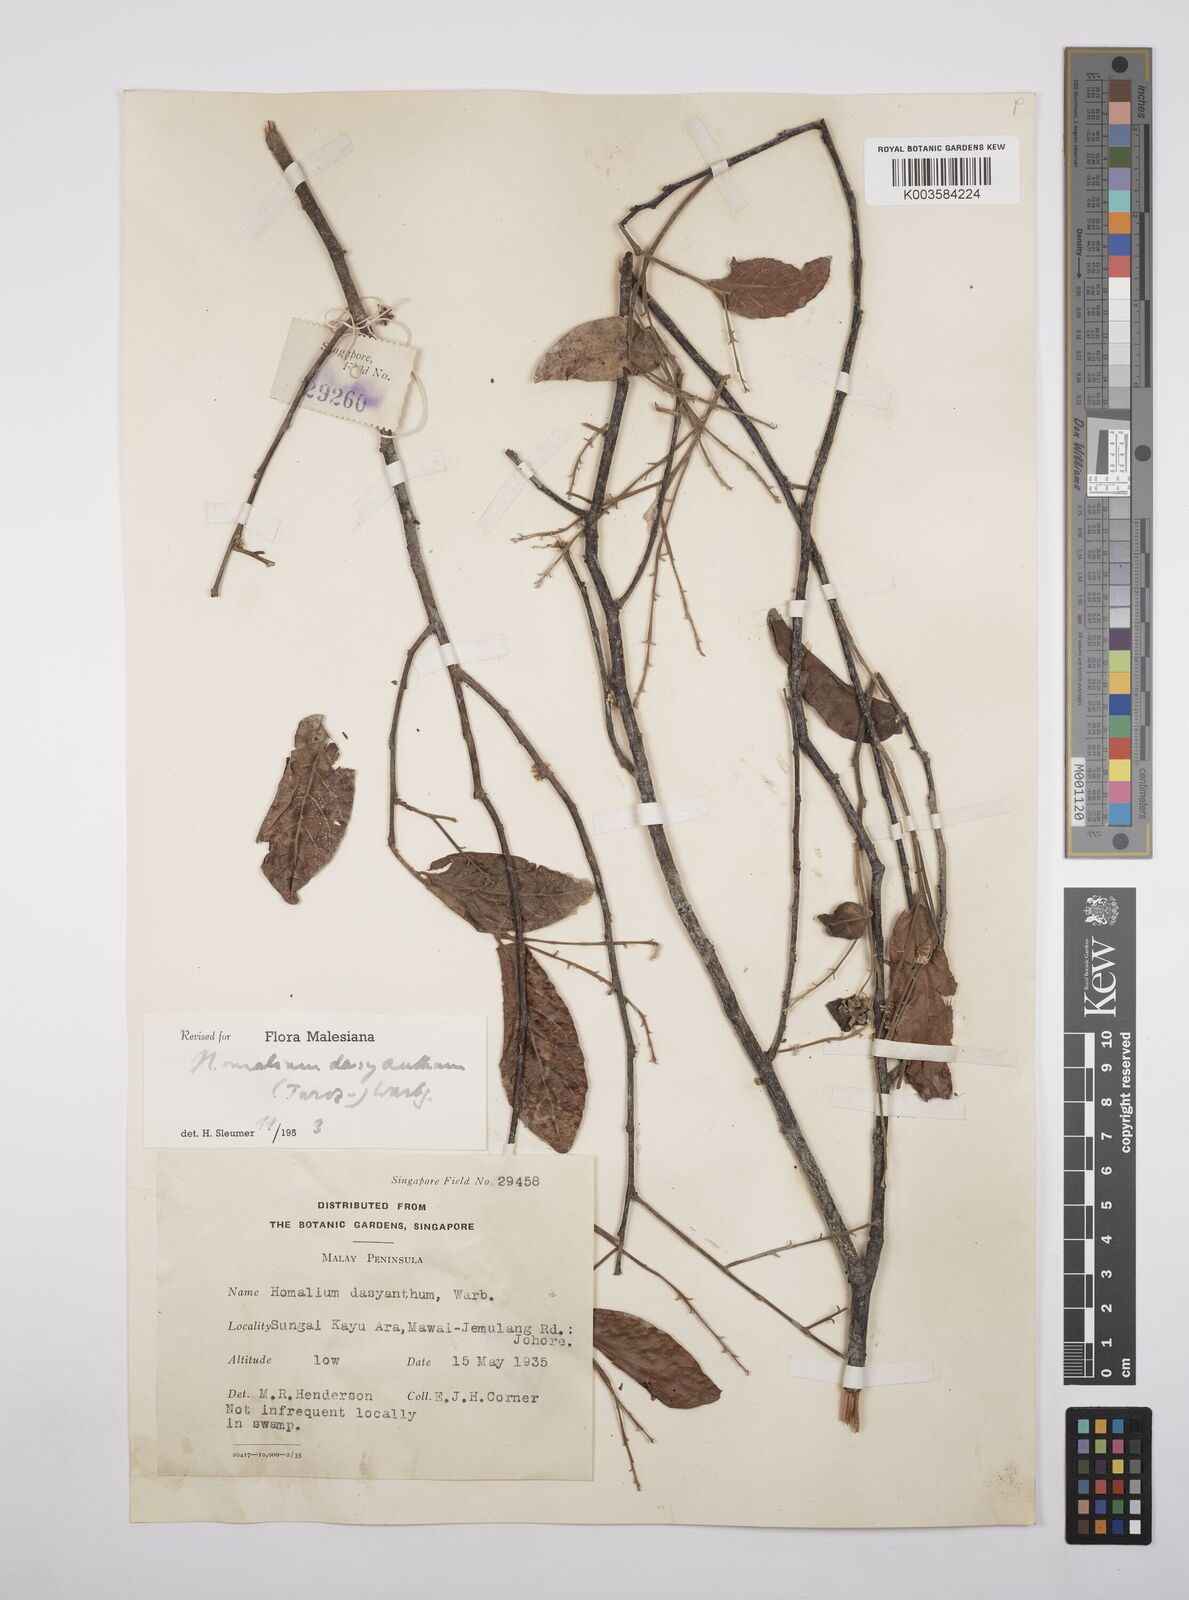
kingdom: Plantae
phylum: Tracheophyta
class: Magnoliopsida
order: Malpighiales
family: Salicaceae
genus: Homalium
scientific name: Homalium dasyanthum
